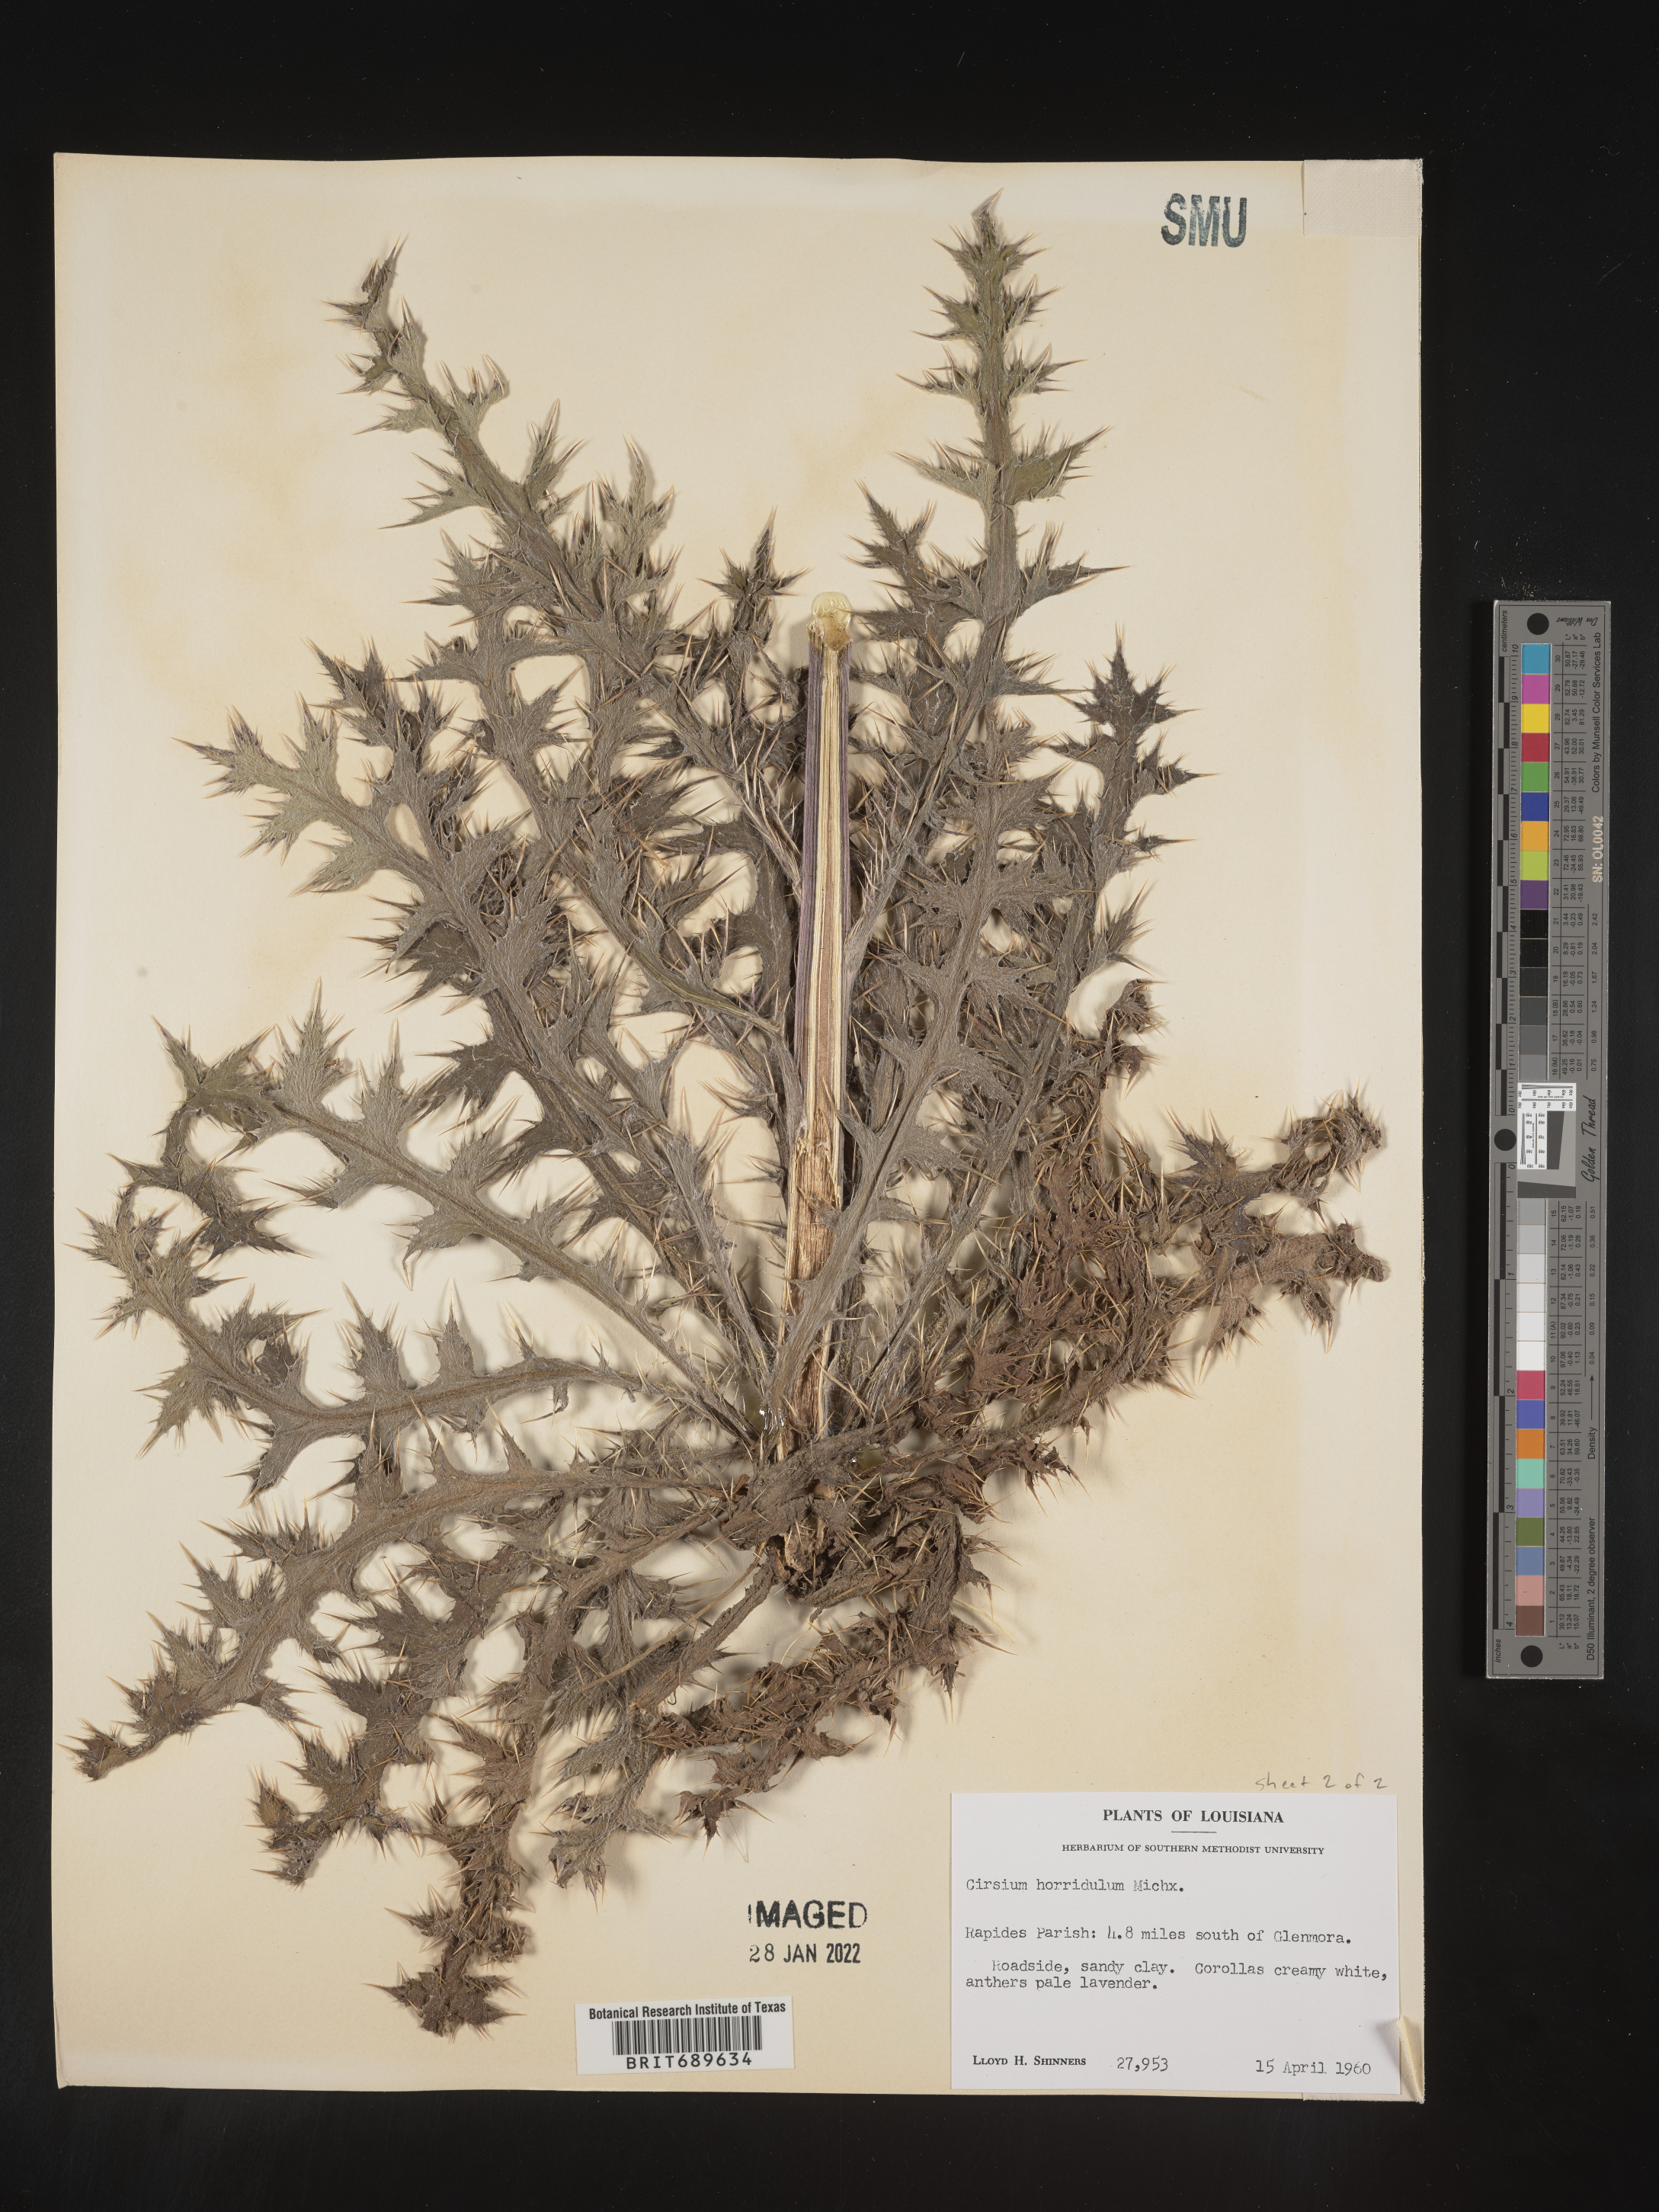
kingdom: Plantae
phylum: Tracheophyta
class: Magnoliopsida
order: Asterales
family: Asteraceae
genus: Cirsium
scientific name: Cirsium horridulum
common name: Bristly thistle
